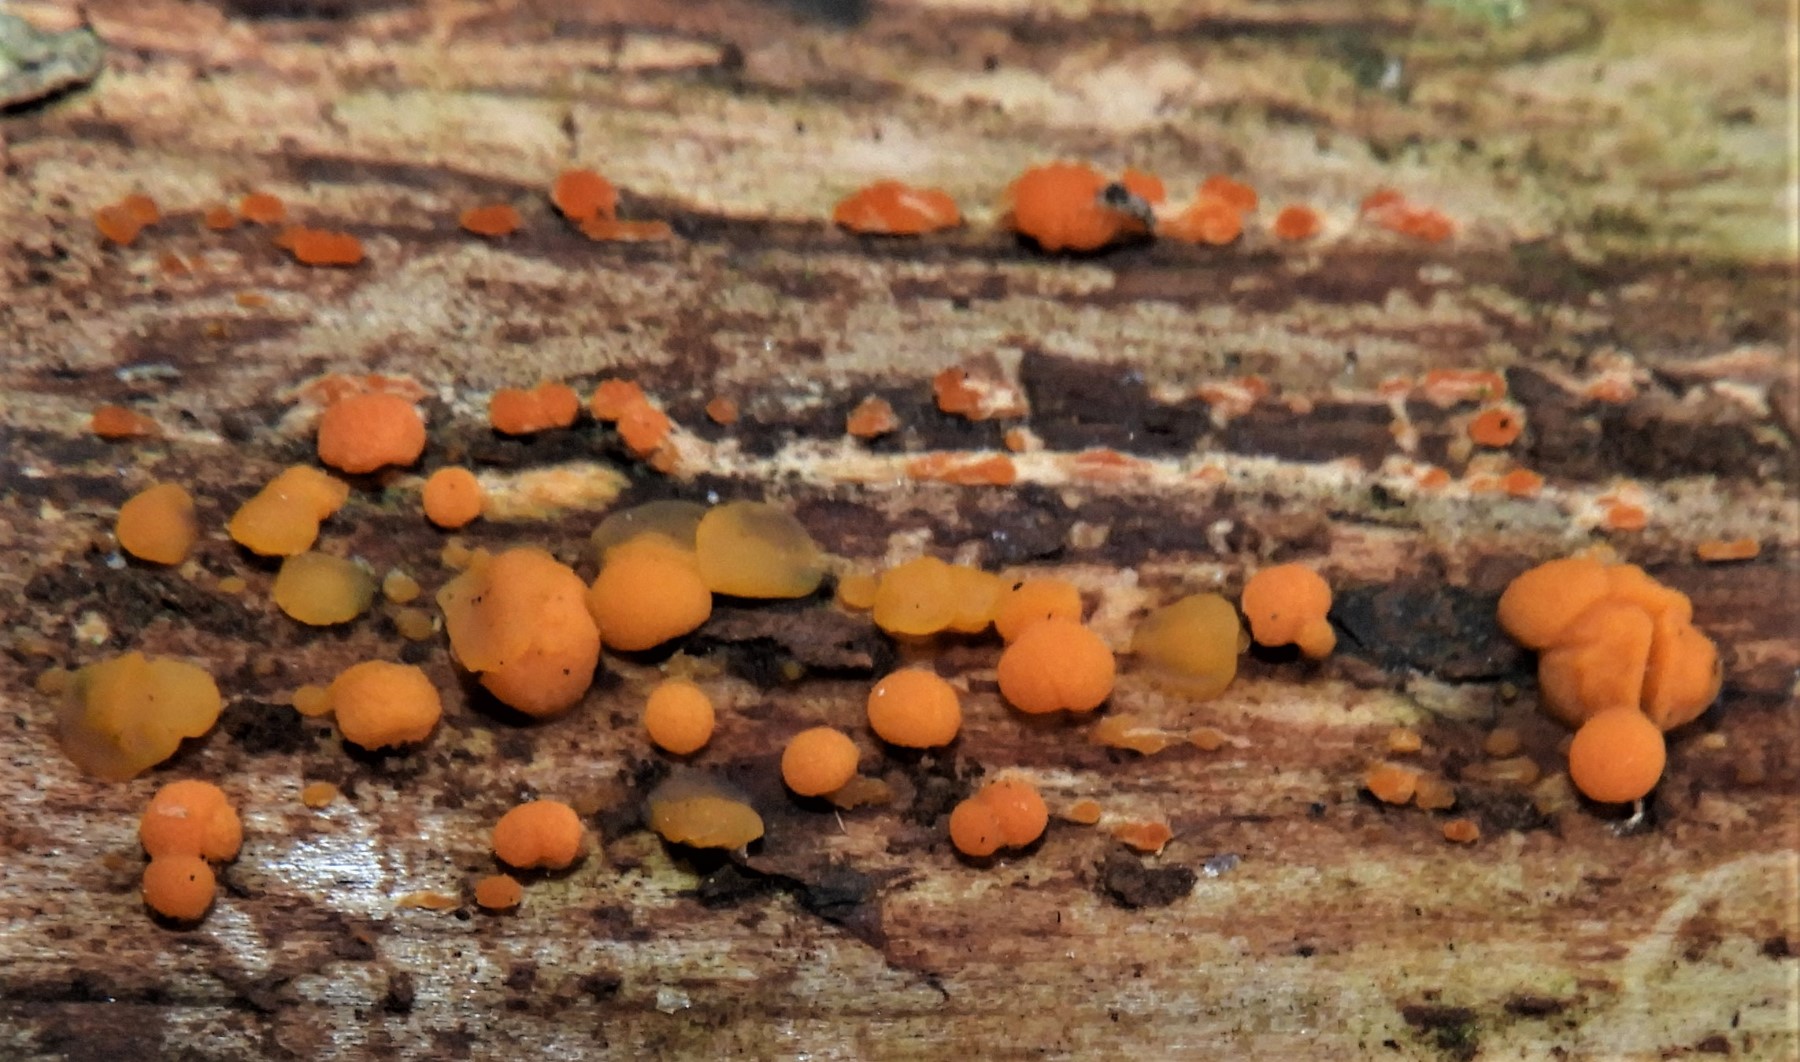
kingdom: Fungi
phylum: Basidiomycota
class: Dacrymycetes
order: Dacrymycetales
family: Dacrymycetaceae
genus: Dacrymyces
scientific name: Dacrymyces stillatus
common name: almindelig tåresvamp
